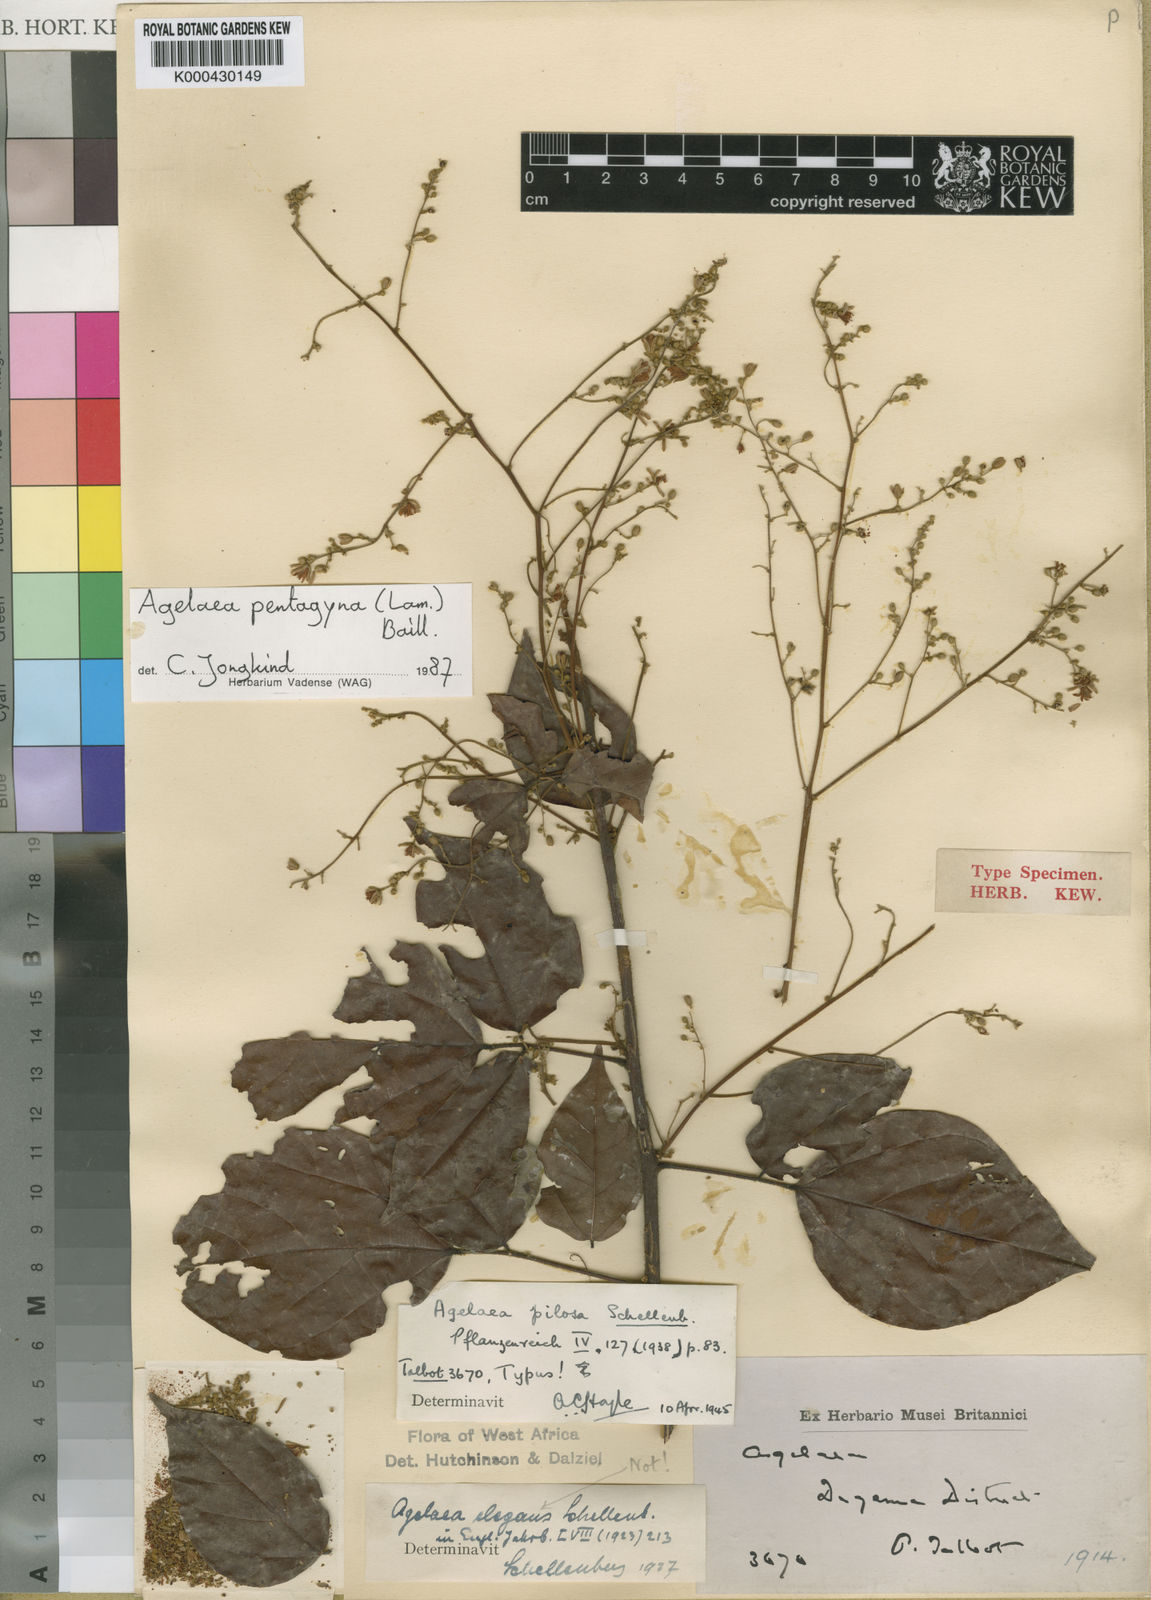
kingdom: Plantae
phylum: Tracheophyta
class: Magnoliopsida
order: Oxalidales
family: Connaraceae
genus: Agelaea
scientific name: Agelaea pentagyna
